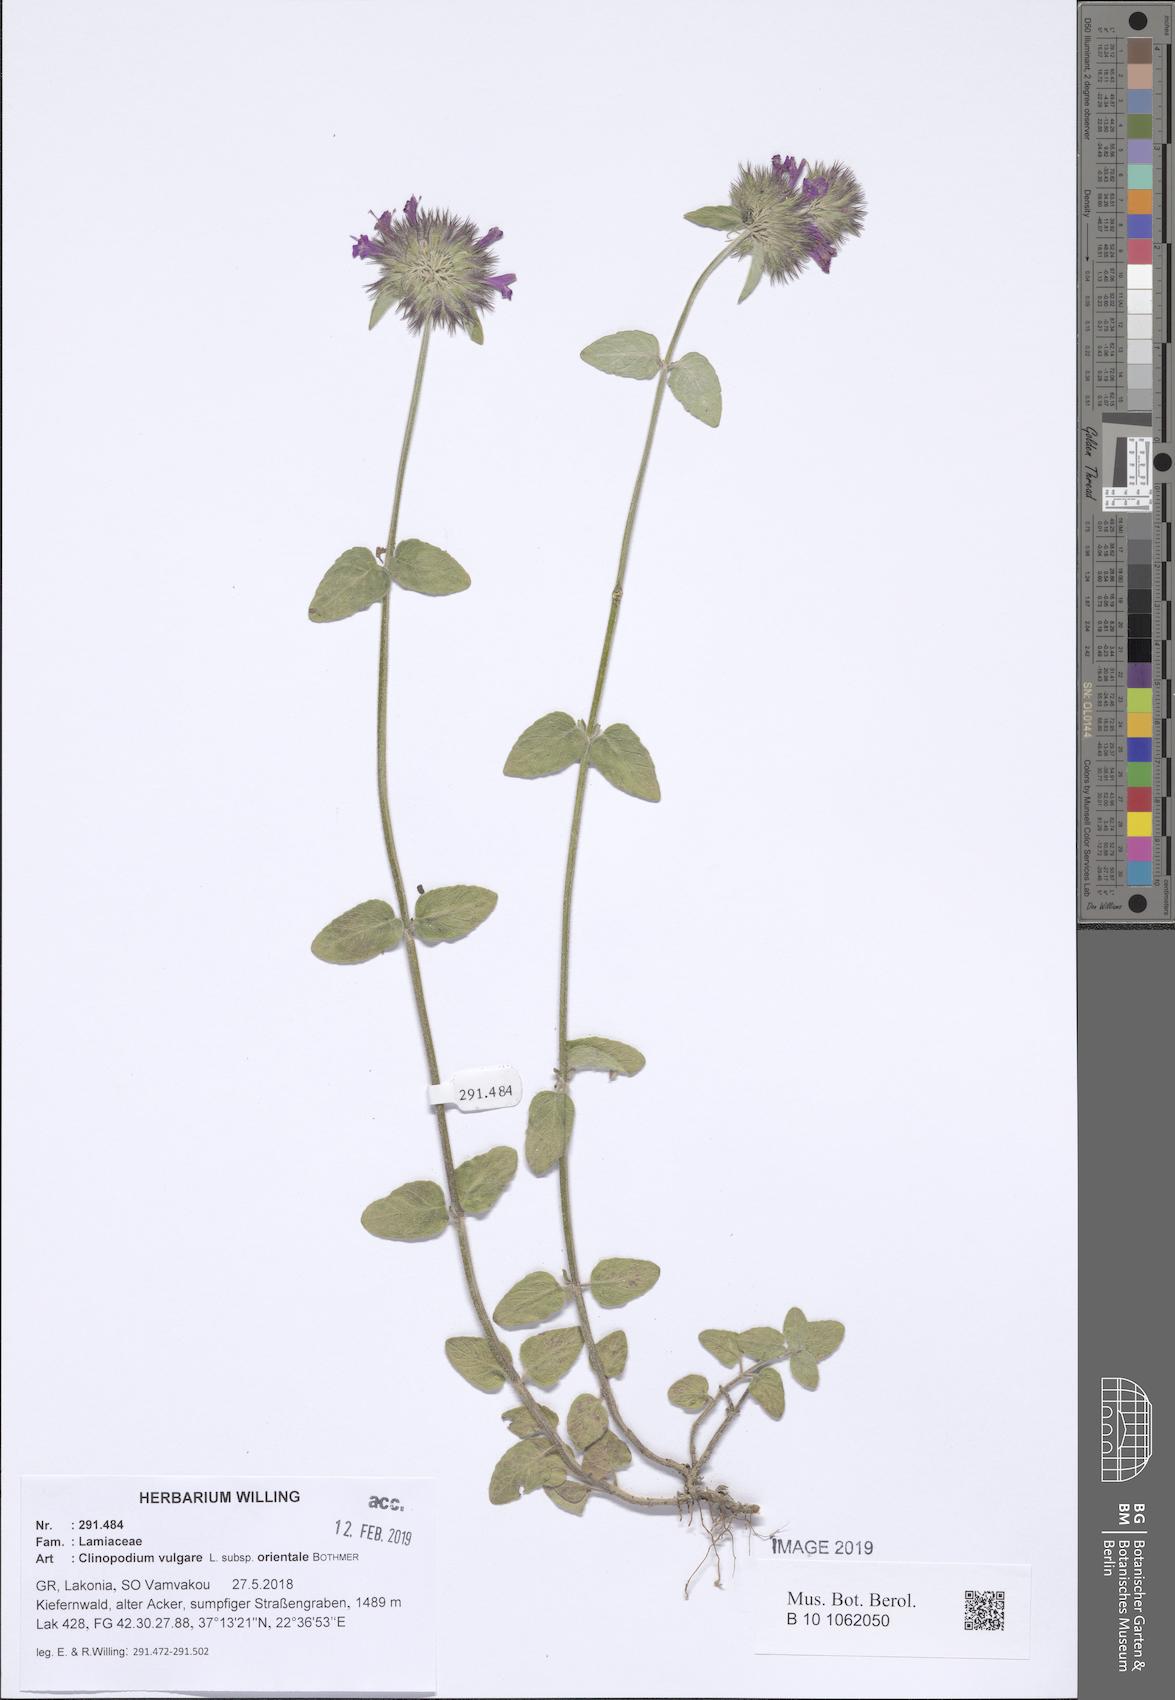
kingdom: Plantae
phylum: Tracheophyta
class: Magnoliopsida
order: Lamiales
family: Lamiaceae
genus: Clinopodium
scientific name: Clinopodium vulgare
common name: Wild basil
